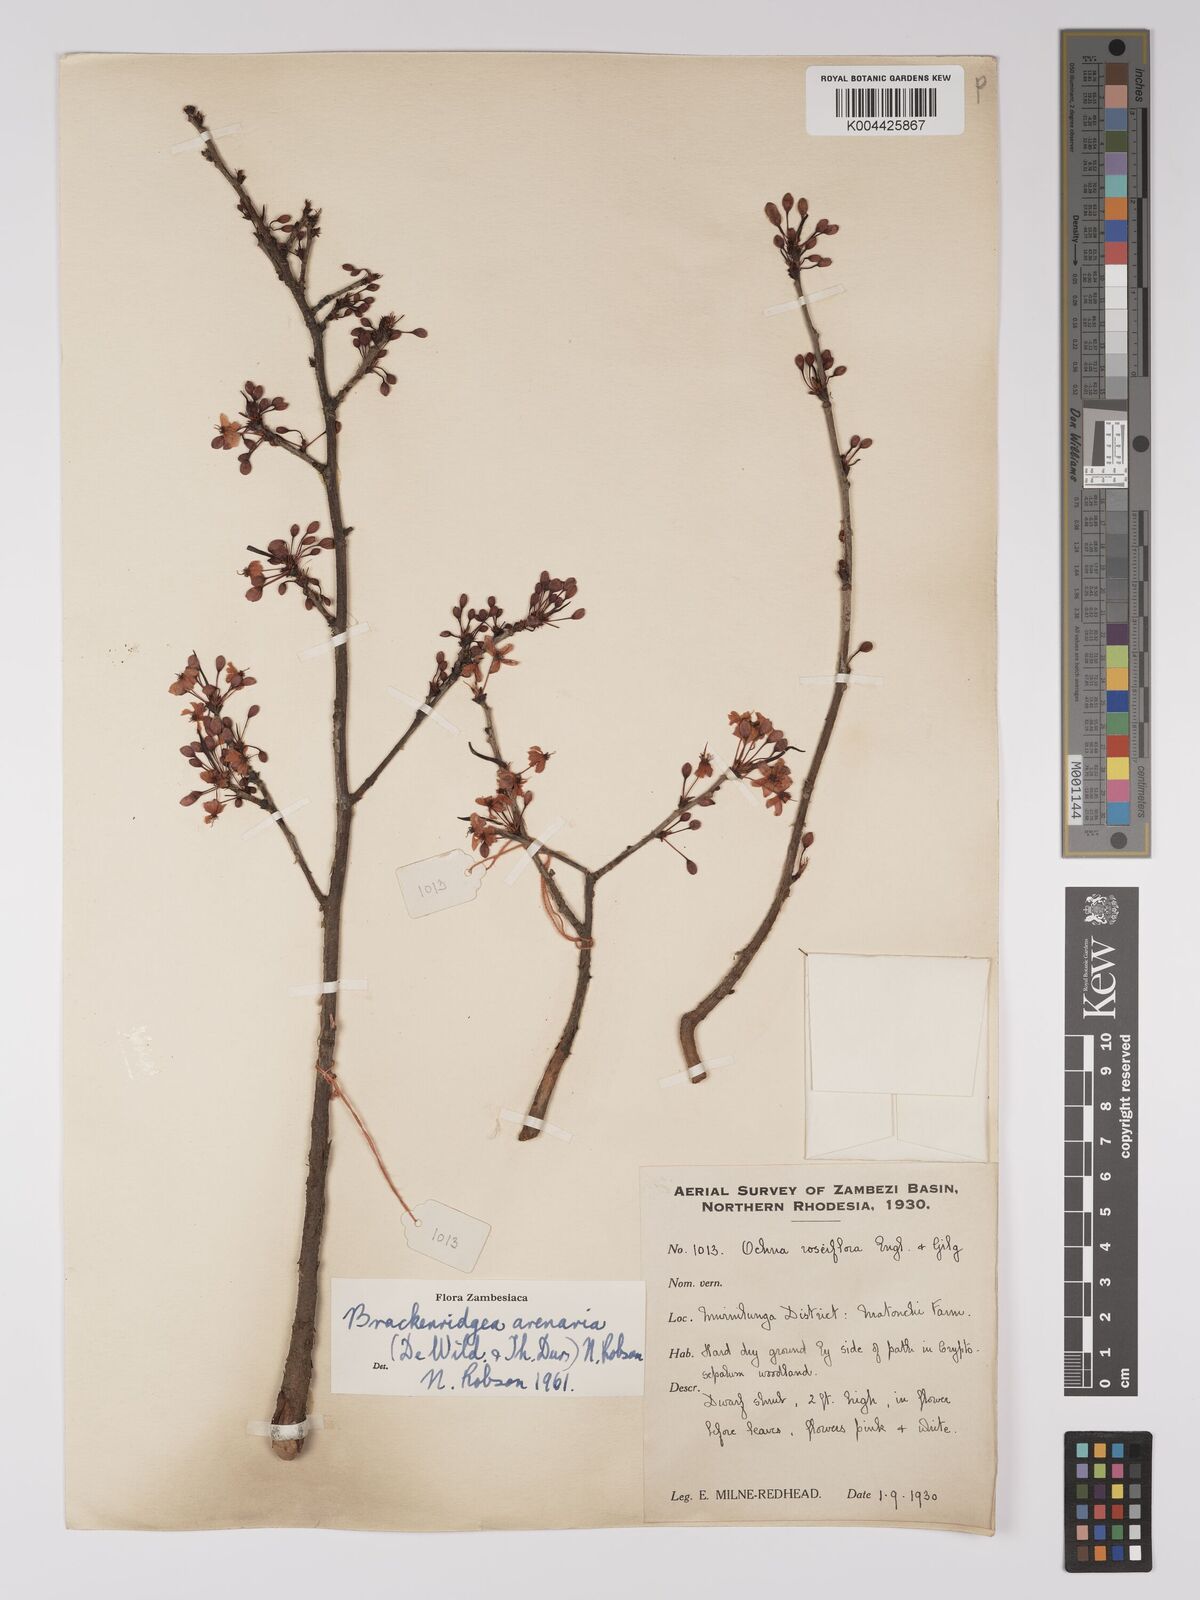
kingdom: Plantae
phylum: Tracheophyta
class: Magnoliopsida
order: Malpighiales
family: Ochnaceae
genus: Ochna
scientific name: Ochna arenaria
